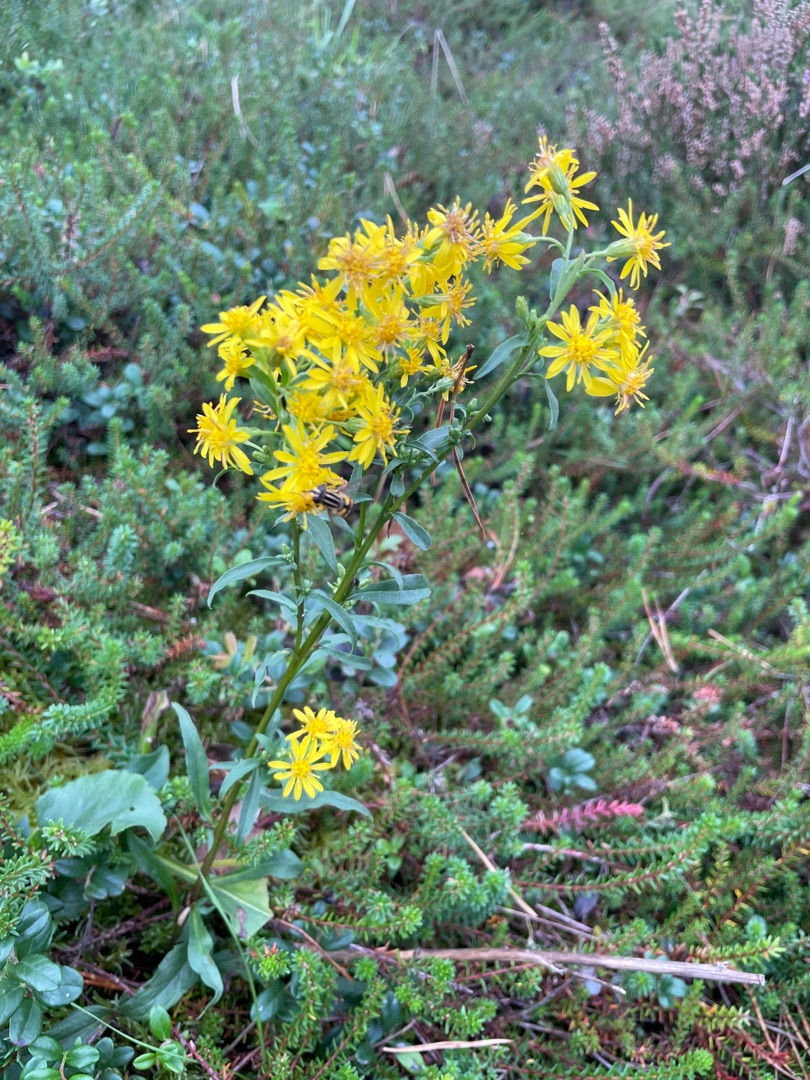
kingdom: Plantae
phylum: Tracheophyta
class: Magnoliopsida
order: Asterales
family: Asteraceae
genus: Solidago
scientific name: Solidago virgaurea
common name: Almindelig gyldenris
